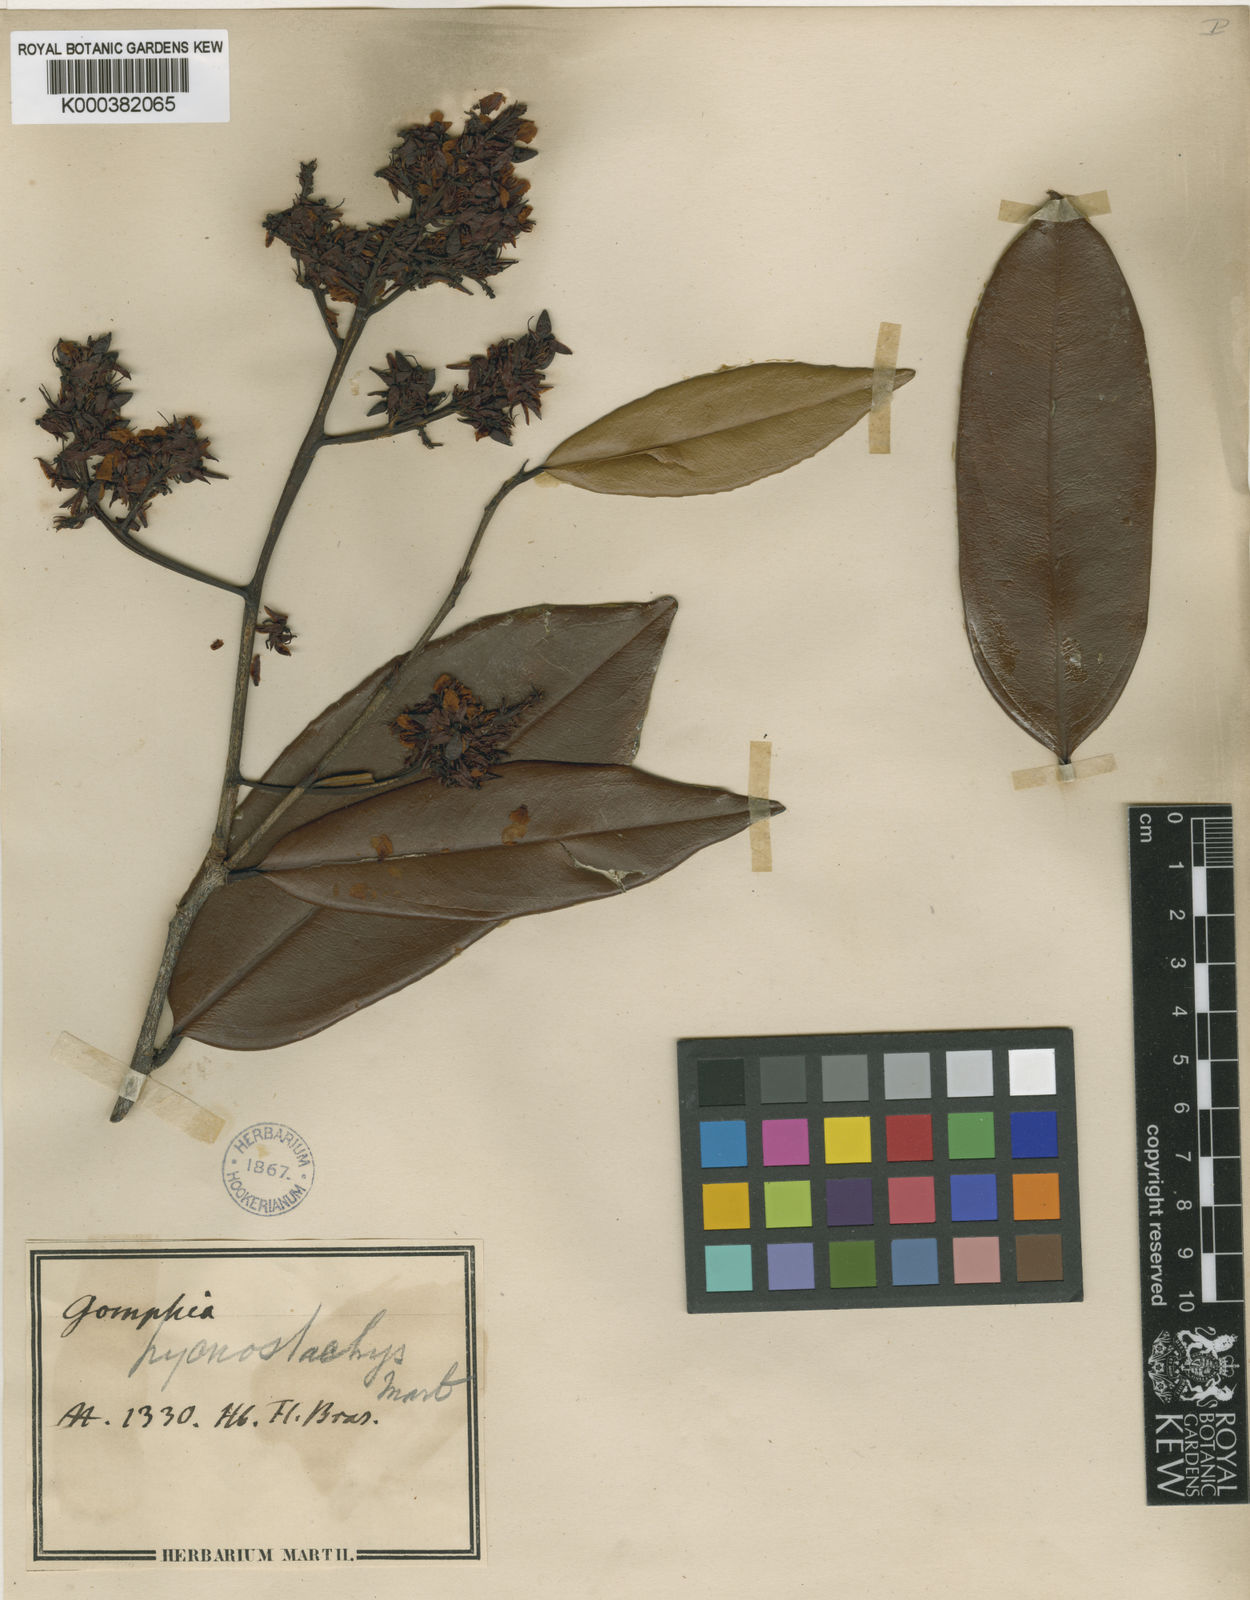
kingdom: Plantae
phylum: Tracheophyta
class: Magnoliopsida
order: Malpighiales
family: Ochnaceae
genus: Ouratea
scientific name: Ouratea pycnostachys
